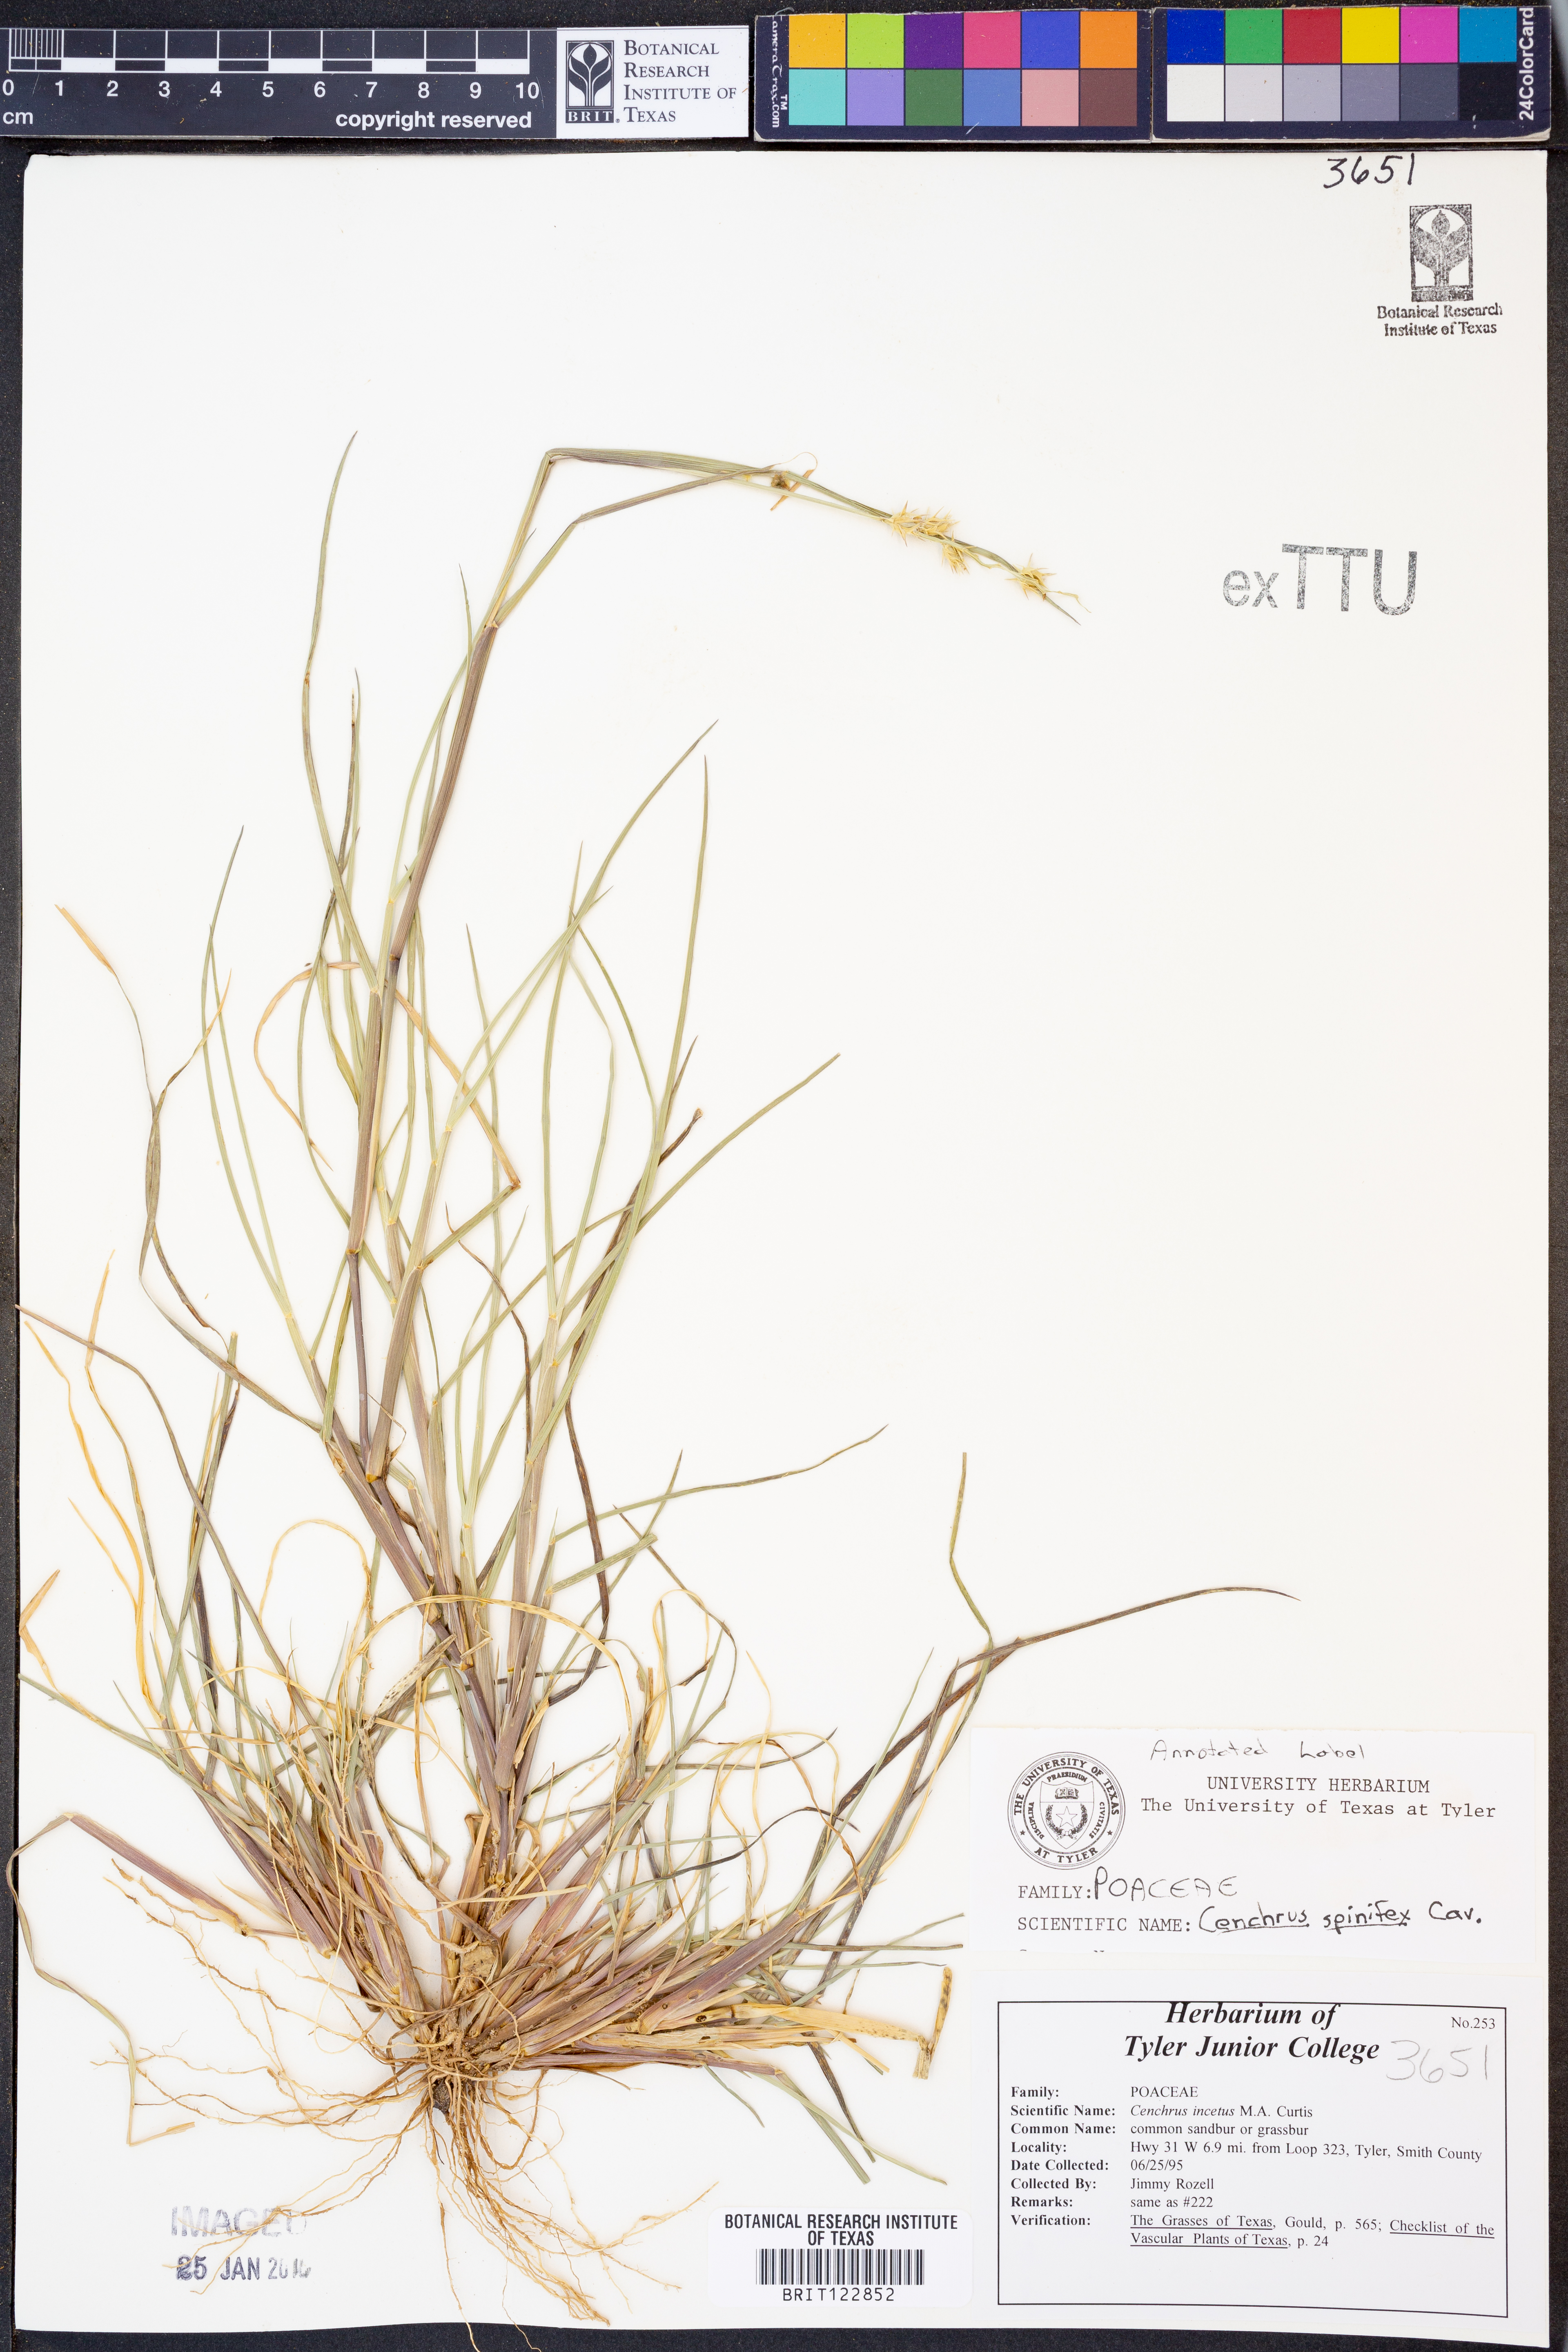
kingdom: Plantae
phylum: Tracheophyta
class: Liliopsida
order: Poales
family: Poaceae
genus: Cenchrus
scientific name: Cenchrus spinifex
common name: Coast sandbur
